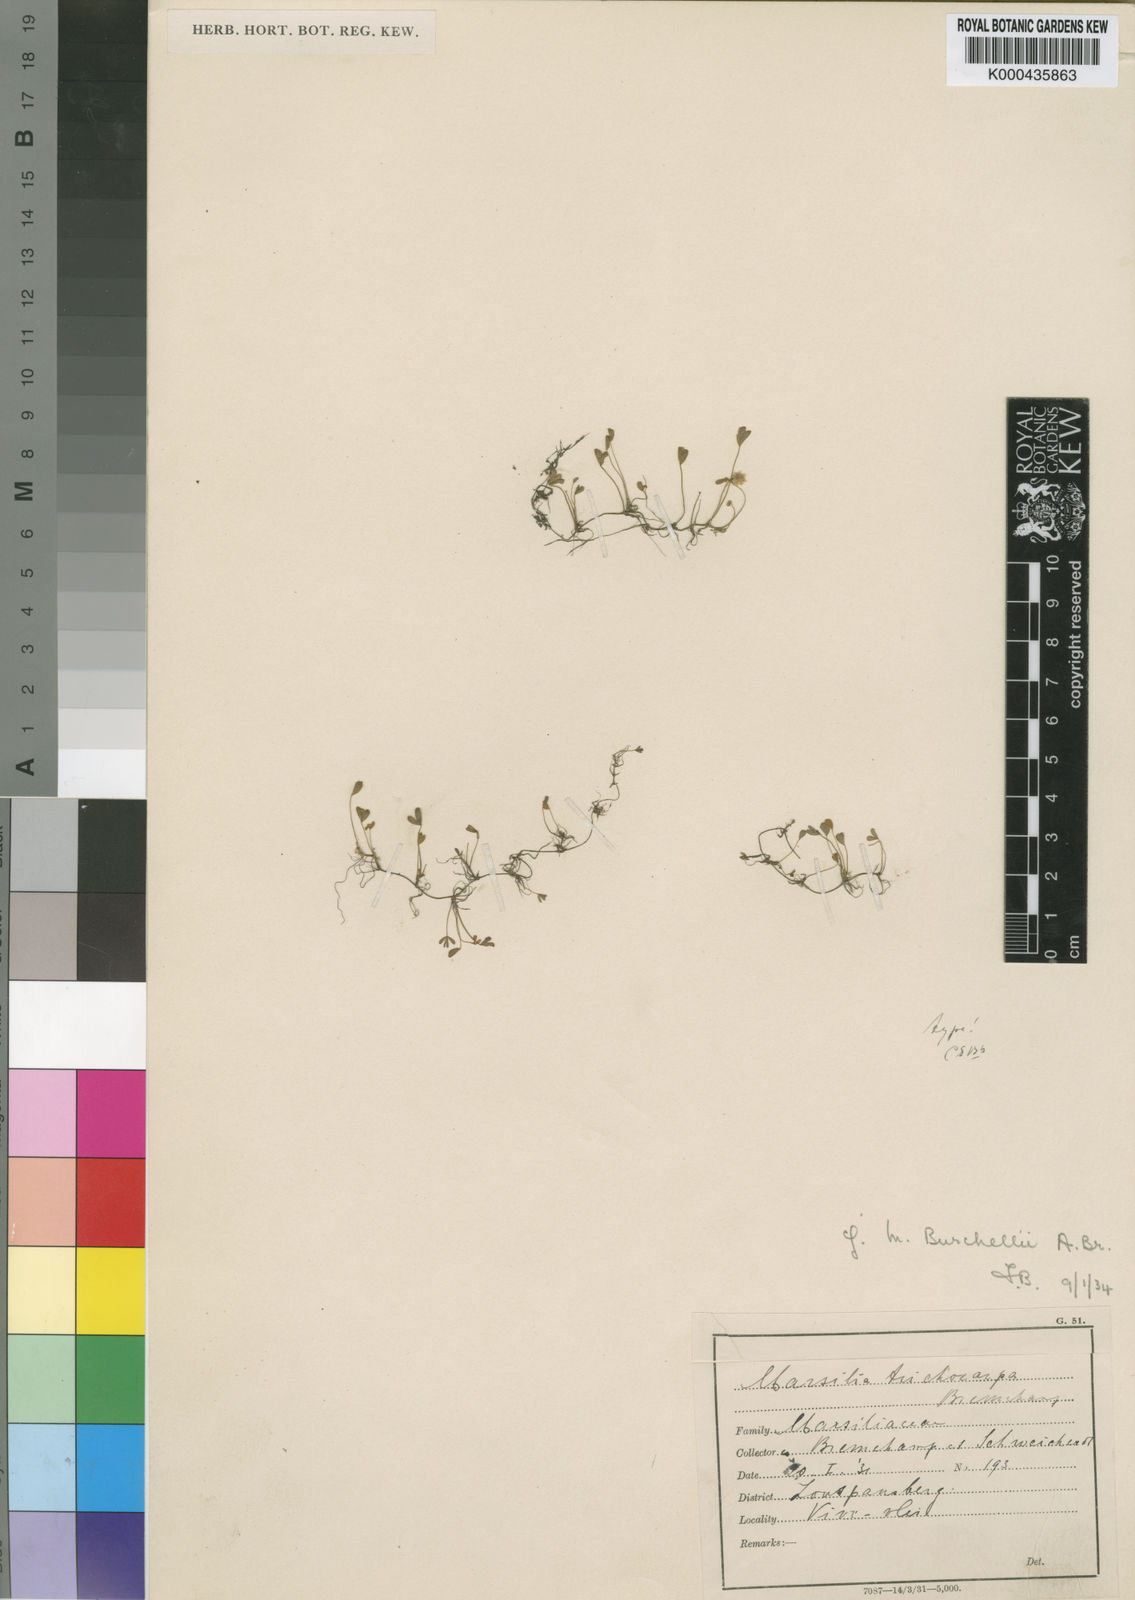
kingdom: Plantae
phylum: Tracheophyta
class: Polypodiopsida
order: Salviniales
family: Marsileaceae
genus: Marsilea
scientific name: Marsilea coromandelina
